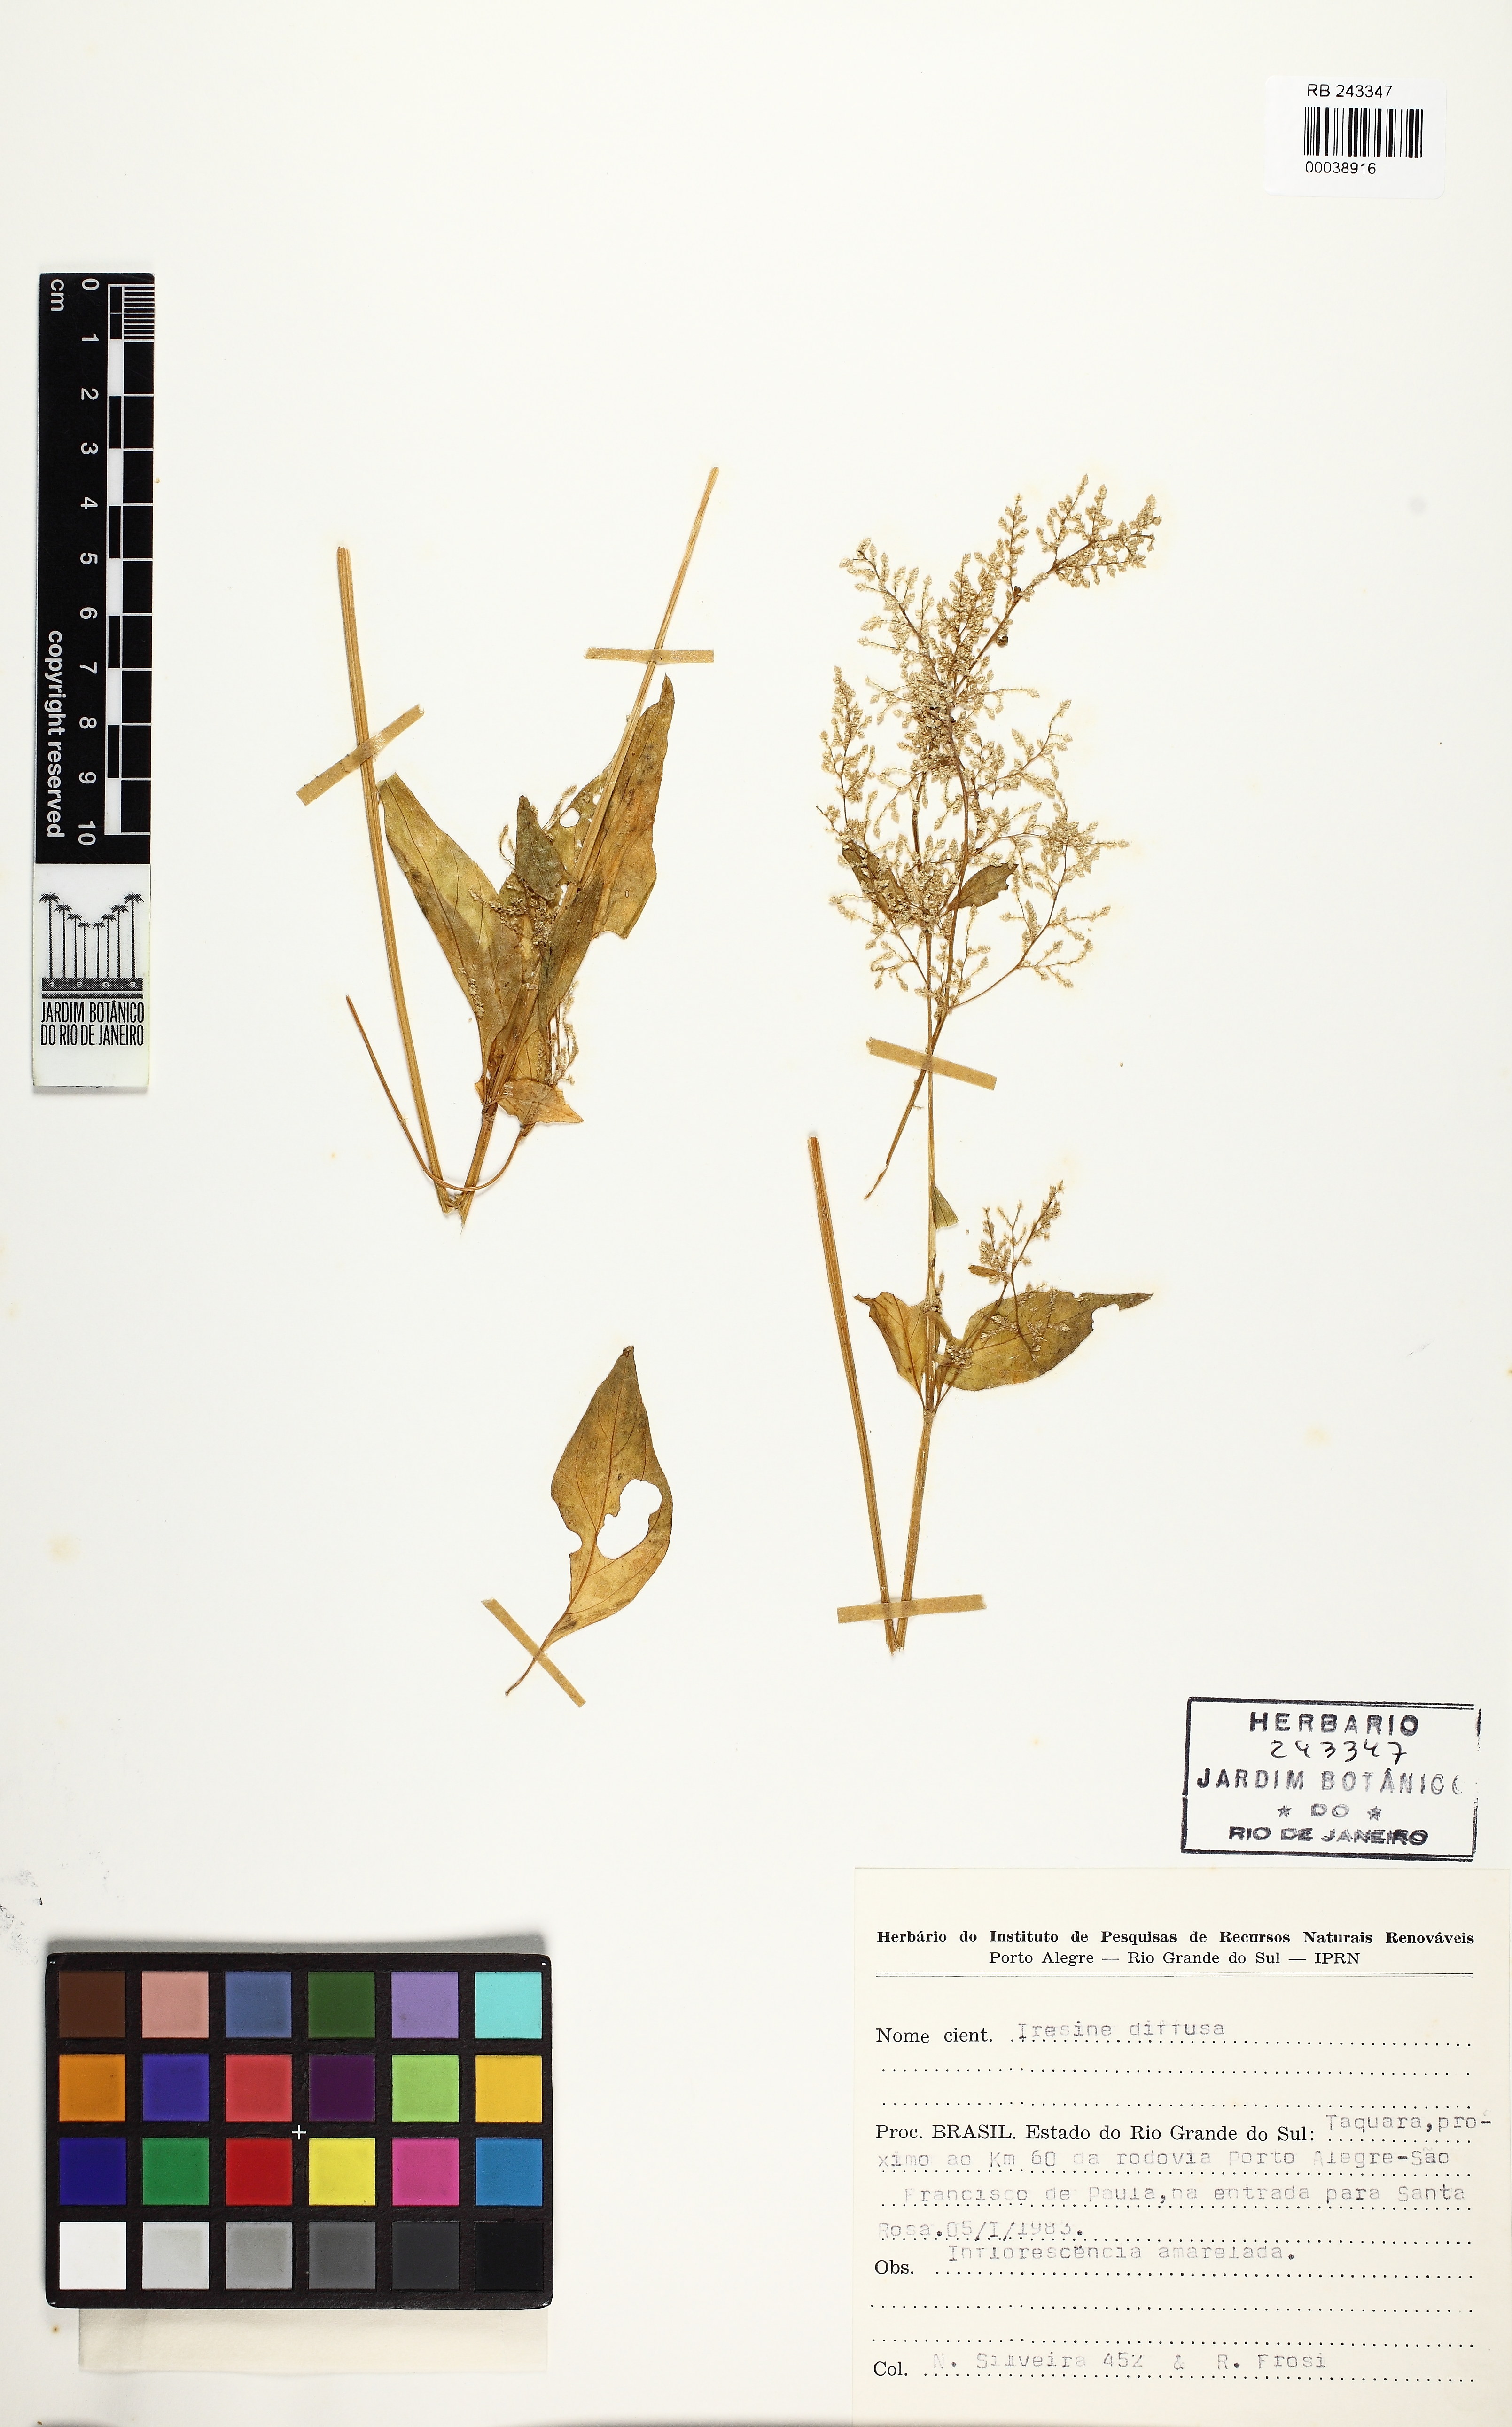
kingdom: Plantae
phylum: Tracheophyta
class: Magnoliopsida
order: Caryophyllales
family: Amaranthaceae
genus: Iresine
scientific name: Iresine diffusa
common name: Juba's-bush
